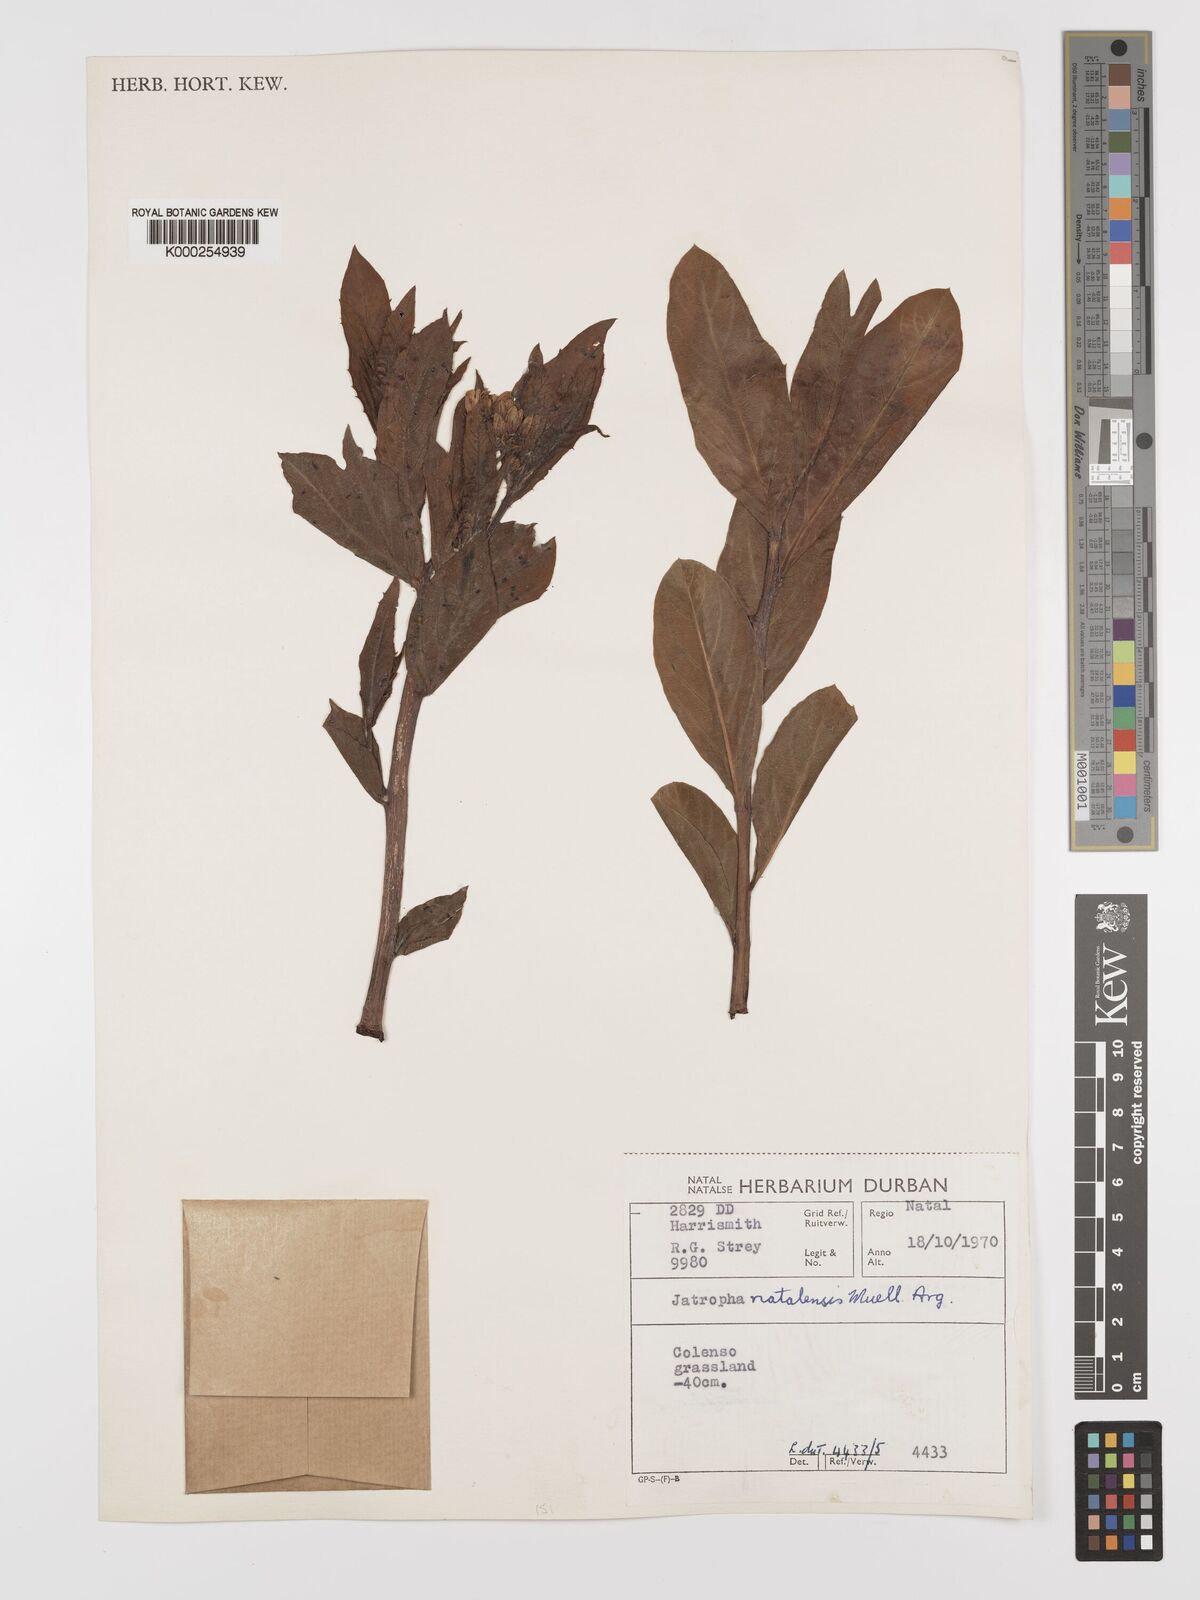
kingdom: Plantae
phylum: Tracheophyta
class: Magnoliopsida
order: Malpighiales
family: Euphorbiaceae
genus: Jatropha
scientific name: Jatropha
